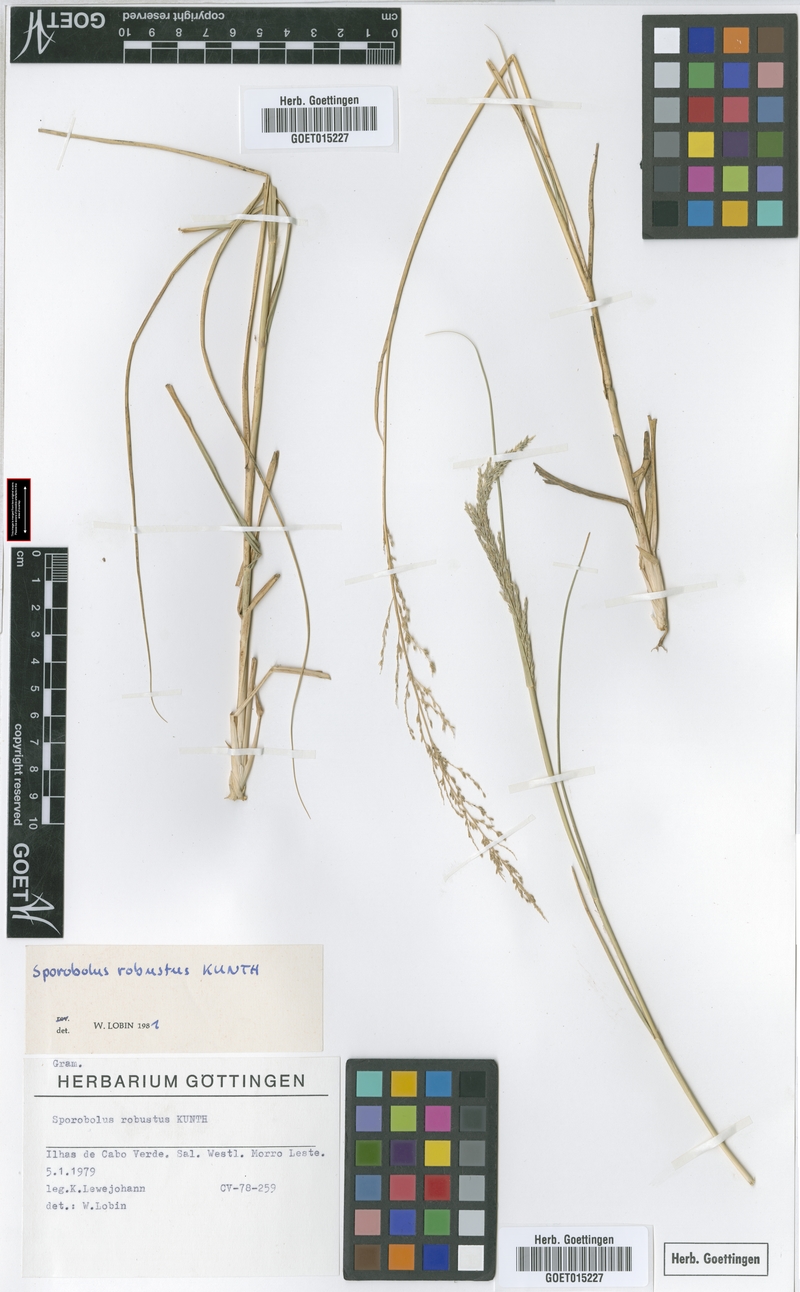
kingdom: Plantae
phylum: Tracheophyta
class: Liliopsida
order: Poales
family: Poaceae
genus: Sporobolus
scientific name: Sporobolus robustus
